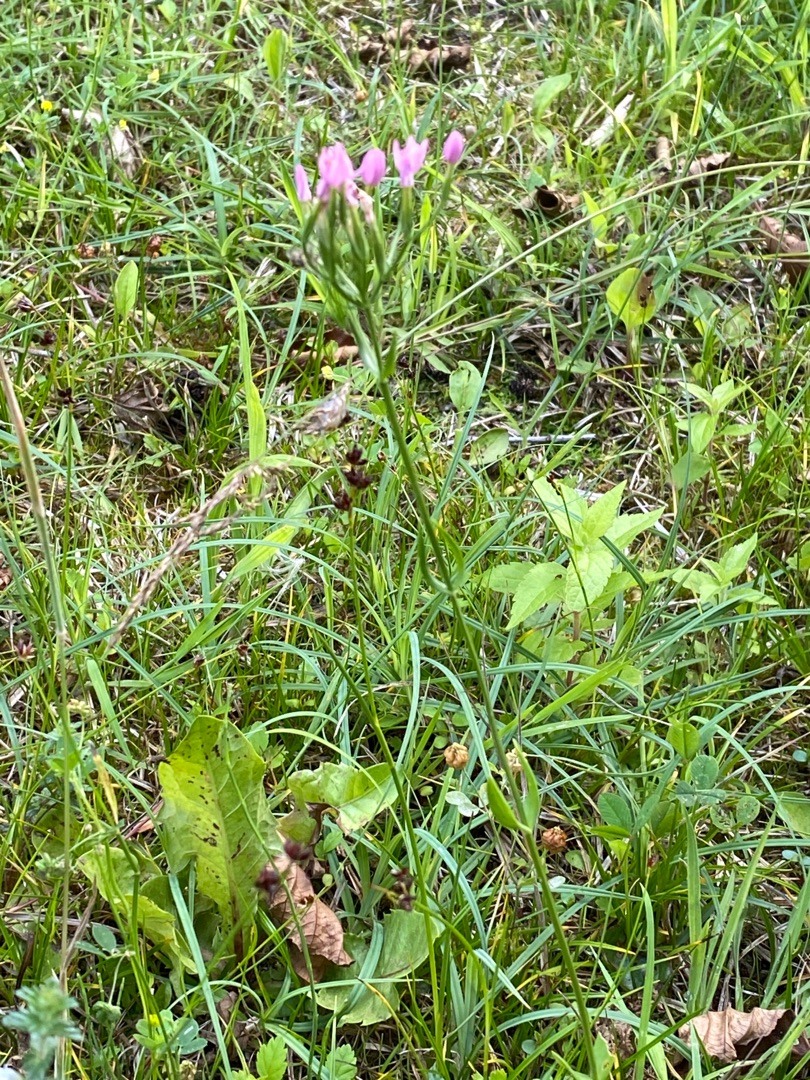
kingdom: Plantae
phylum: Tracheophyta
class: Magnoliopsida
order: Gentianales
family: Gentianaceae
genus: Centaurium
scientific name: Centaurium erythraea
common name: Mark-tusindgylden
